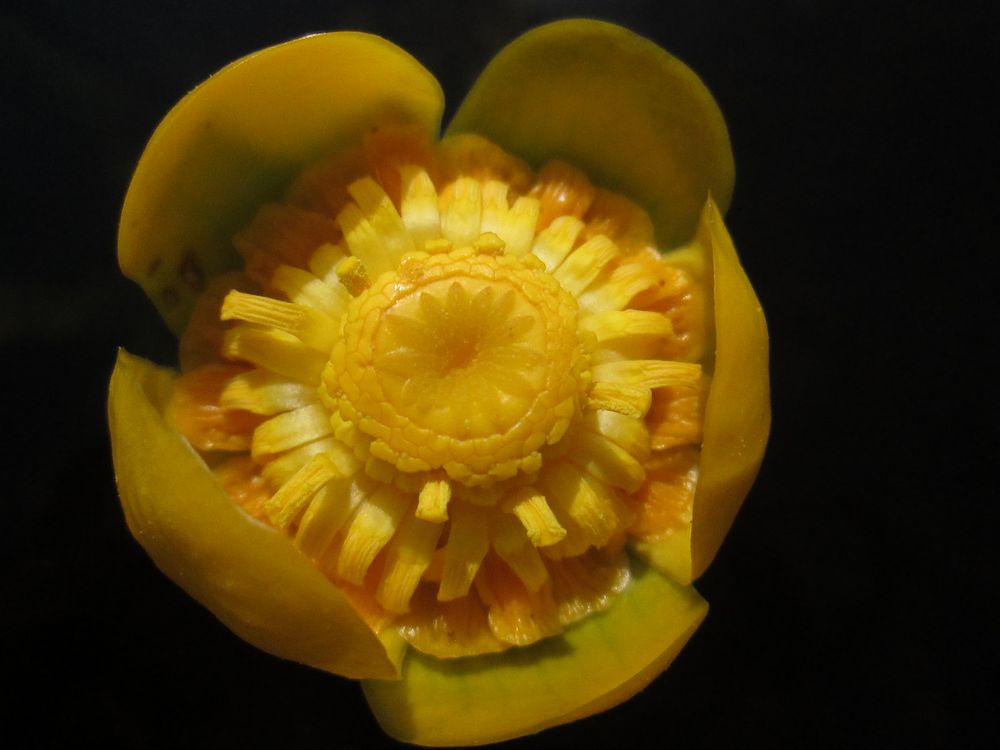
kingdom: Plantae
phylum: Tracheophyta
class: Magnoliopsida
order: Nymphaeales
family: Nymphaeaceae
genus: Nuphar
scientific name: Nuphar lutea
